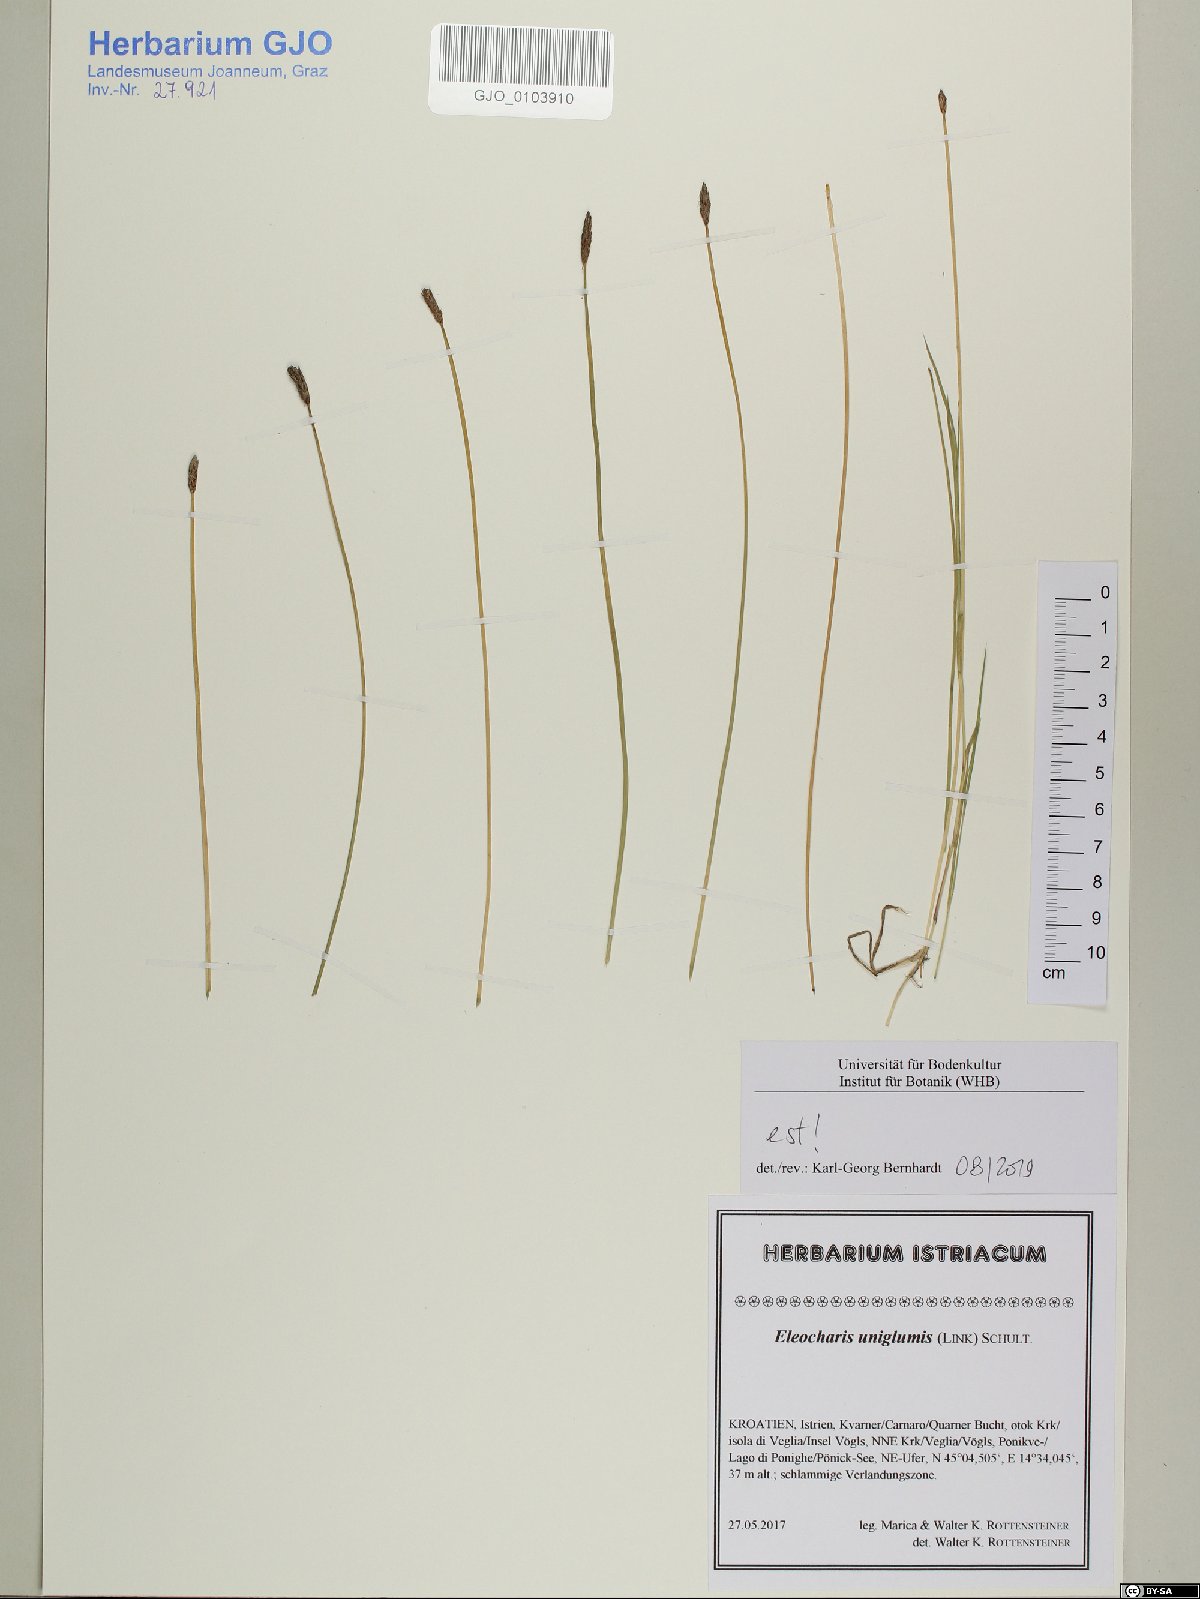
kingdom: Plantae
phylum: Tracheophyta
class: Liliopsida
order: Poales
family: Cyperaceae
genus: Eleocharis
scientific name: Eleocharis uniglumis
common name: Slender spike-rush
